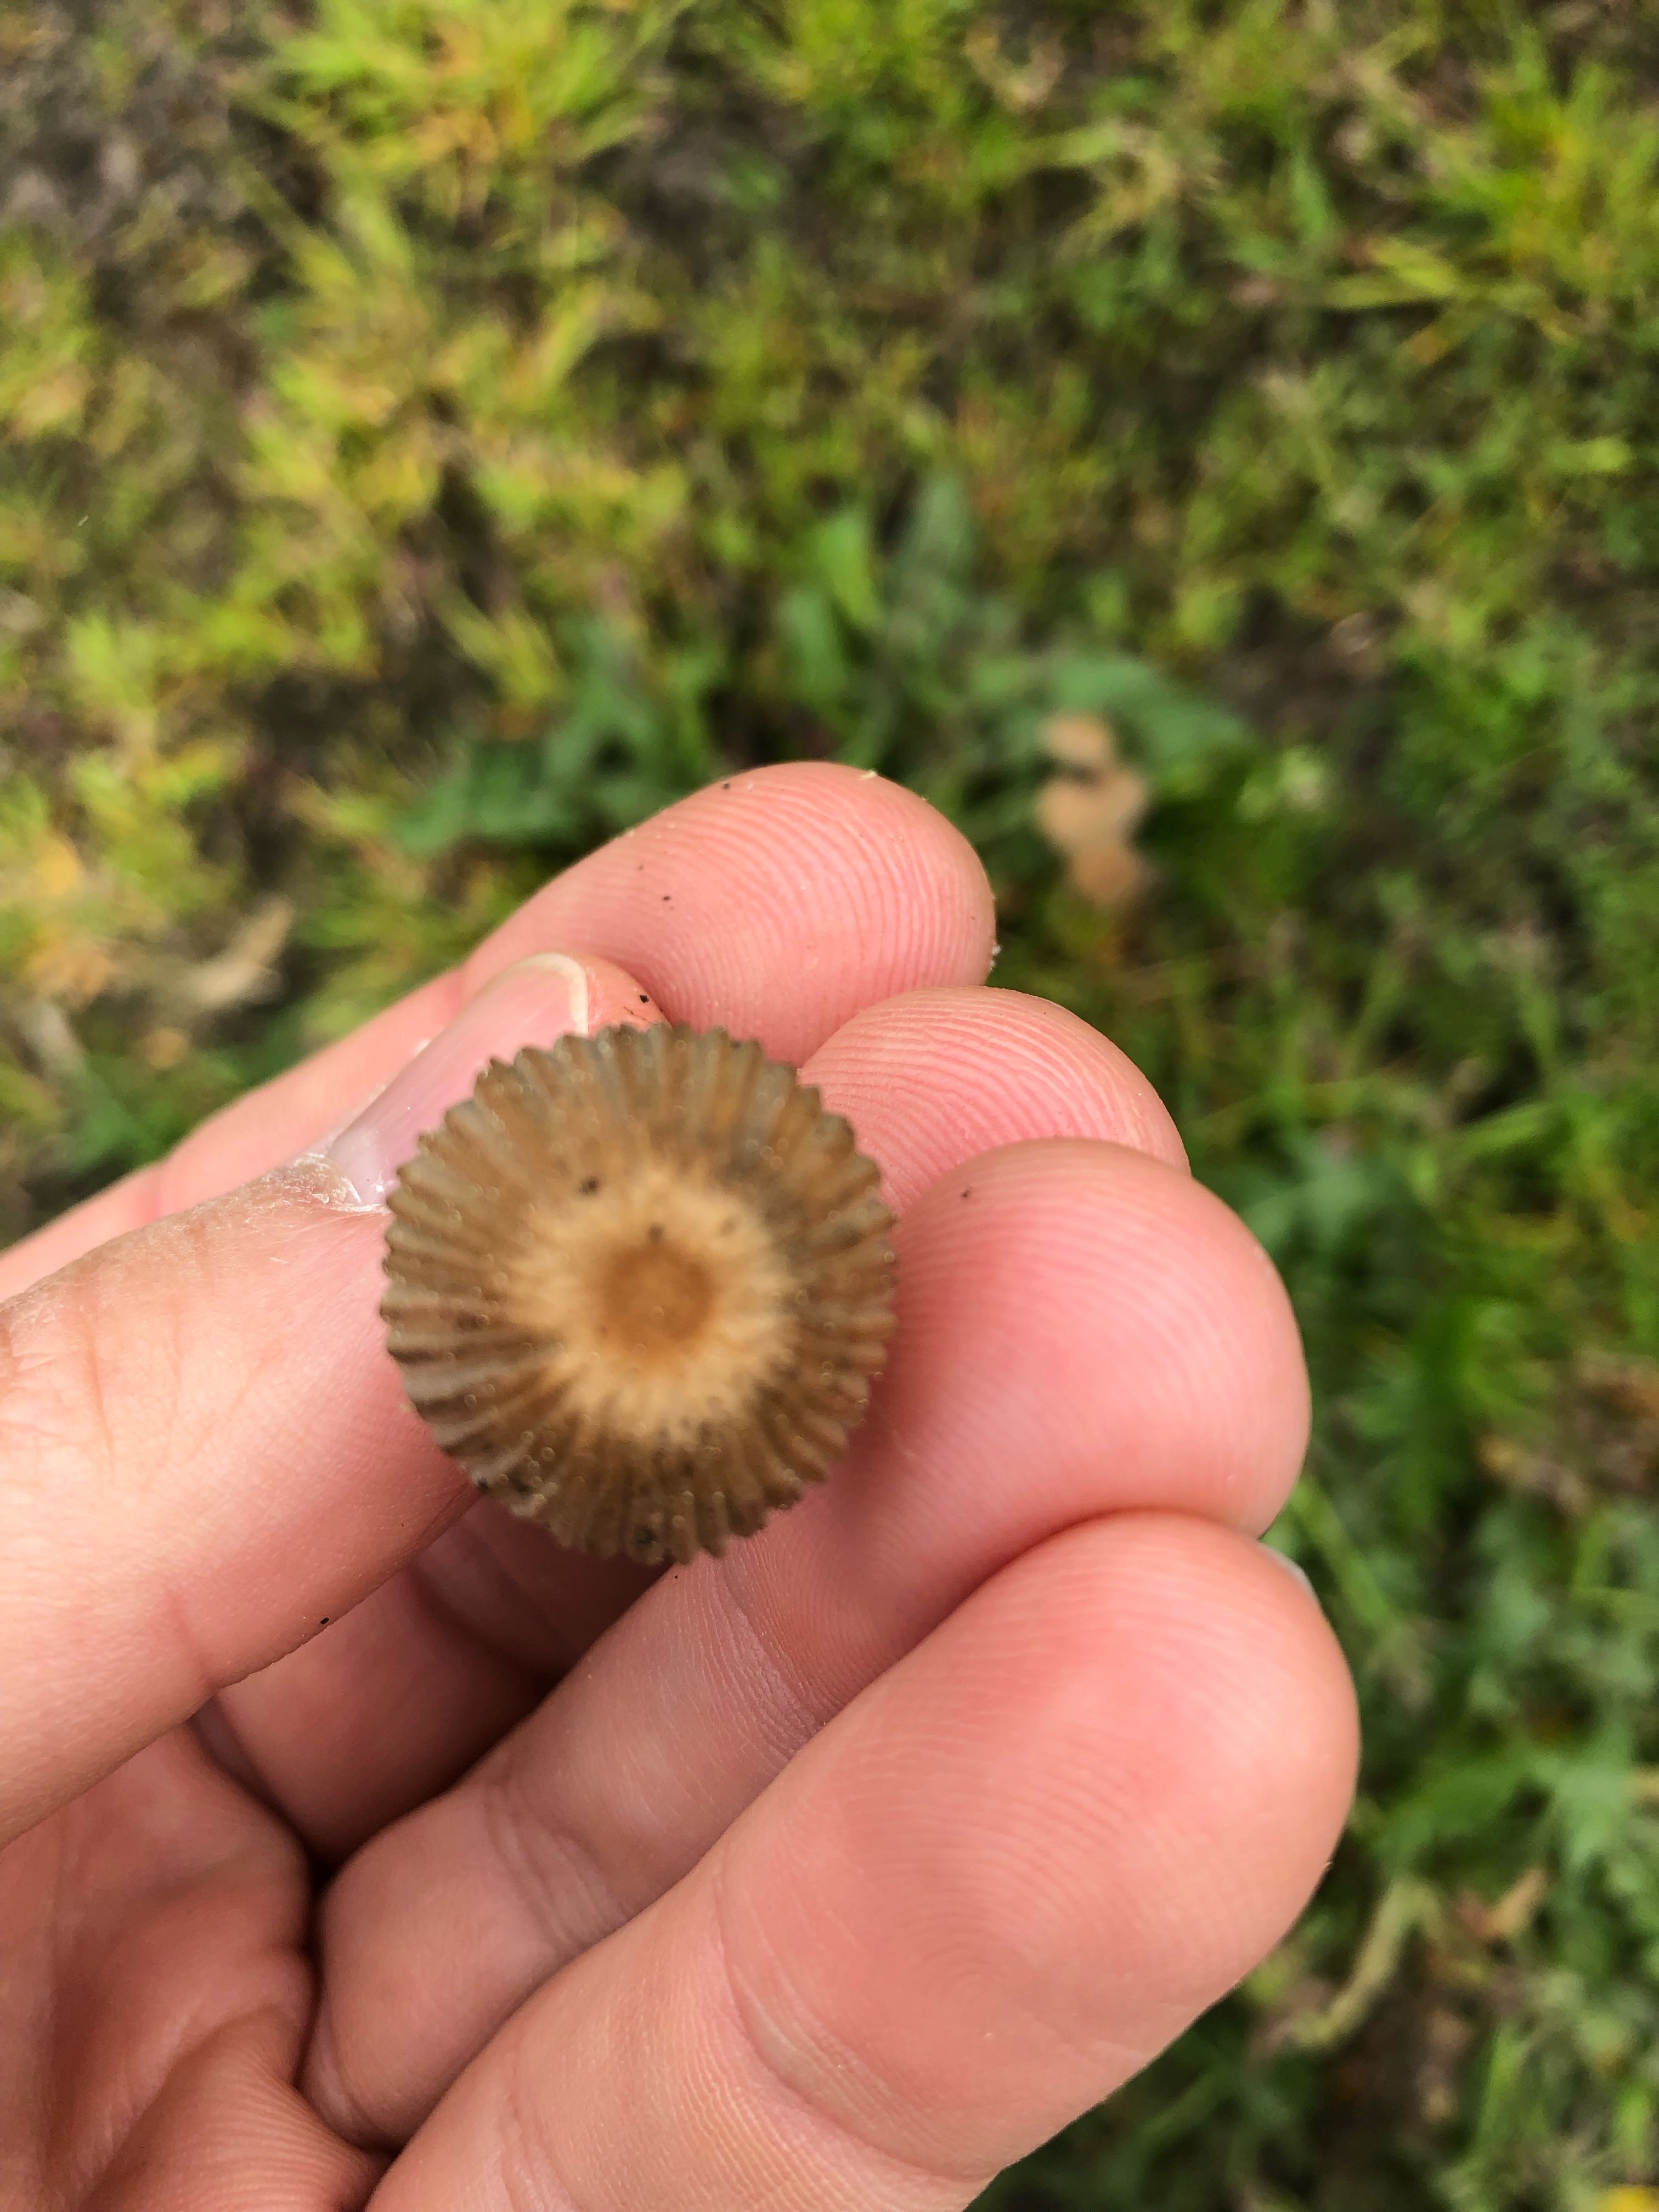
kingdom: Fungi
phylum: Basidiomycota
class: Agaricomycetes
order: Agaricales
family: Psathyrellaceae
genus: Parasola
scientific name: Parasola
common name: hjulhat
